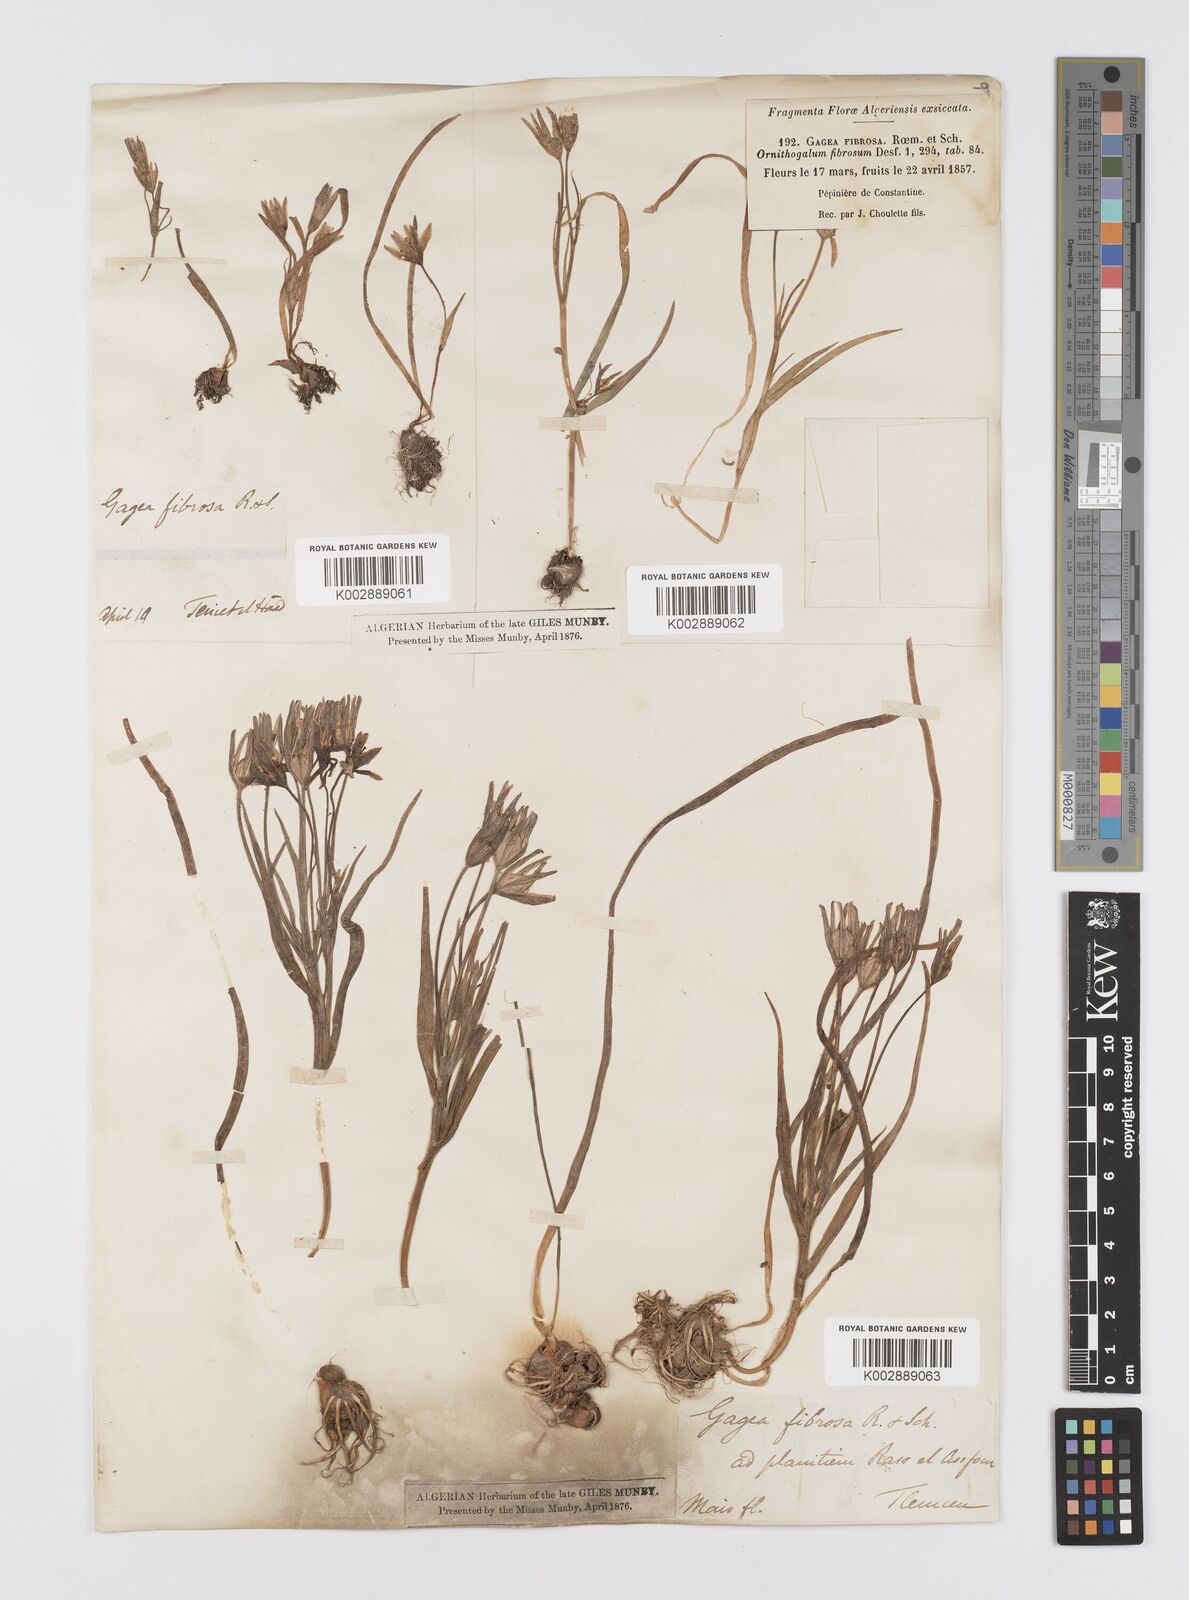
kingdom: Plantae
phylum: Tracheophyta
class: Liliopsida
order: Liliales
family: Liliaceae
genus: Gagea
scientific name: Gagea fibrosa
